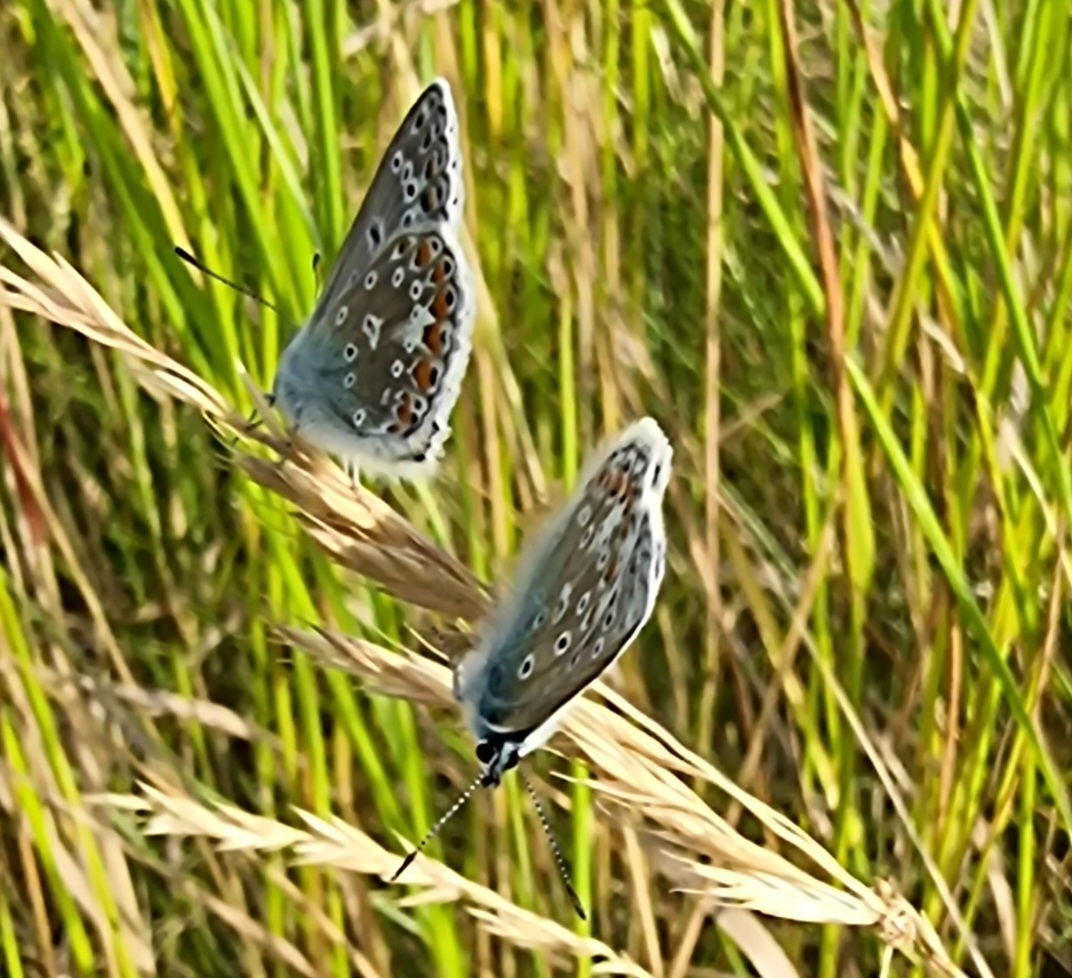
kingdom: Animalia
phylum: Arthropoda
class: Insecta
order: Lepidoptera
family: Lycaenidae
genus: Polyommatus
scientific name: Polyommatus icarus
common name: Almindelig blåfugl
